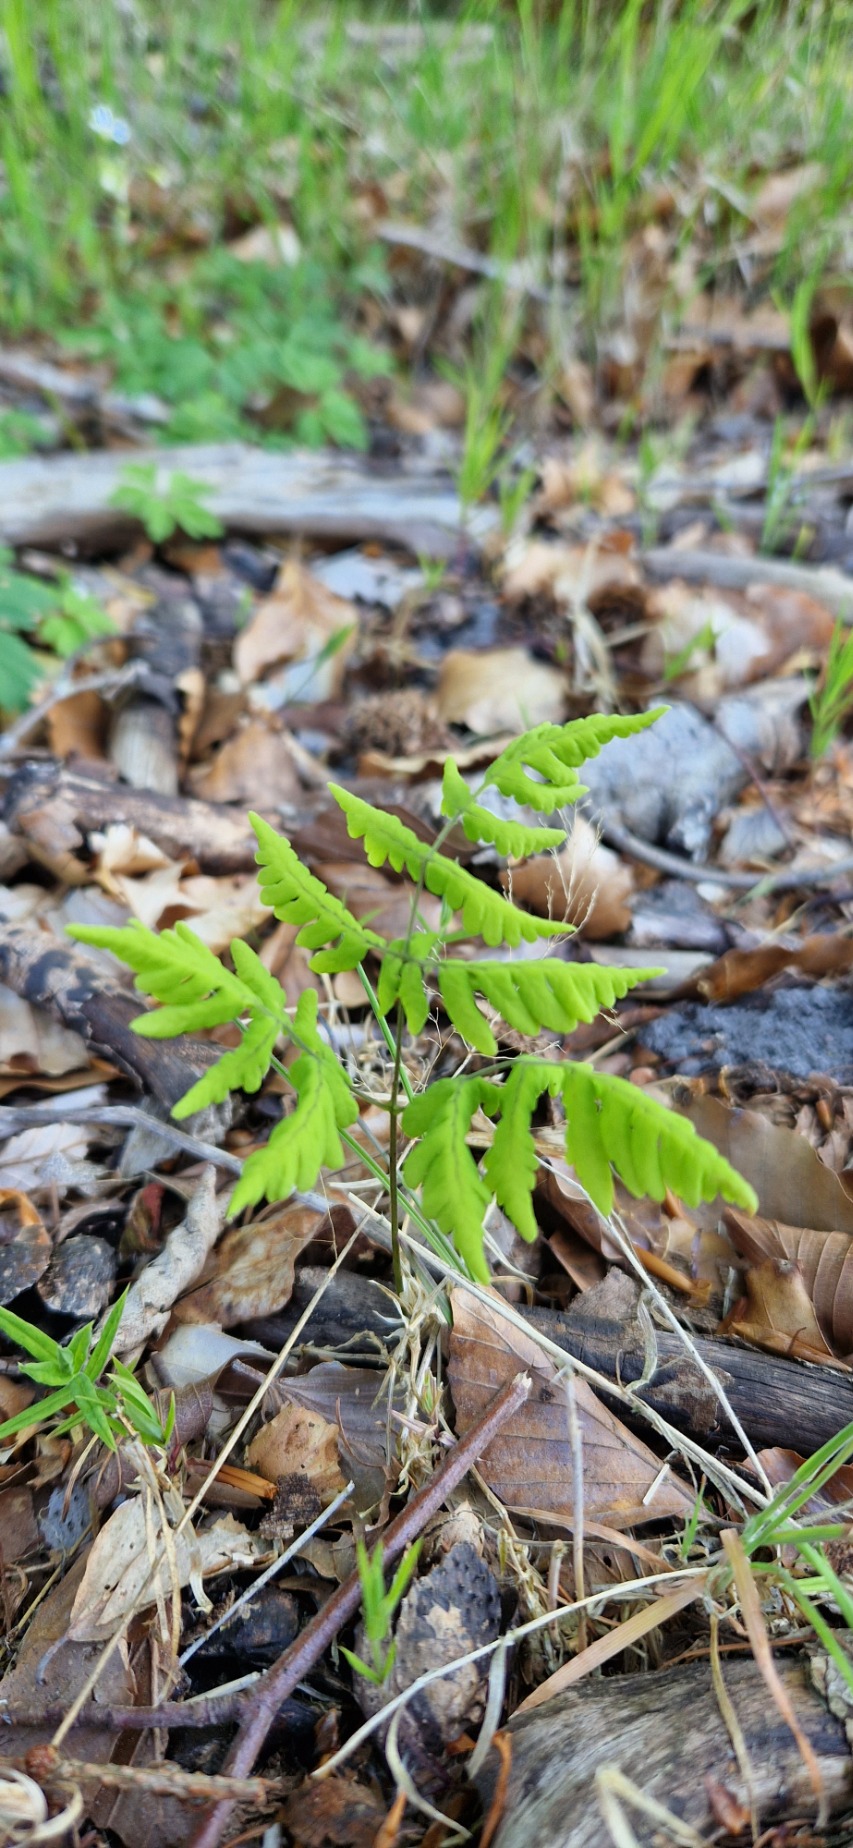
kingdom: Plantae
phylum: Tracheophyta
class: Polypodiopsida
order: Polypodiales
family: Cystopteridaceae
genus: Gymnocarpium
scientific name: Gymnocarpium dryopteris
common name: Tredelt egebregne
